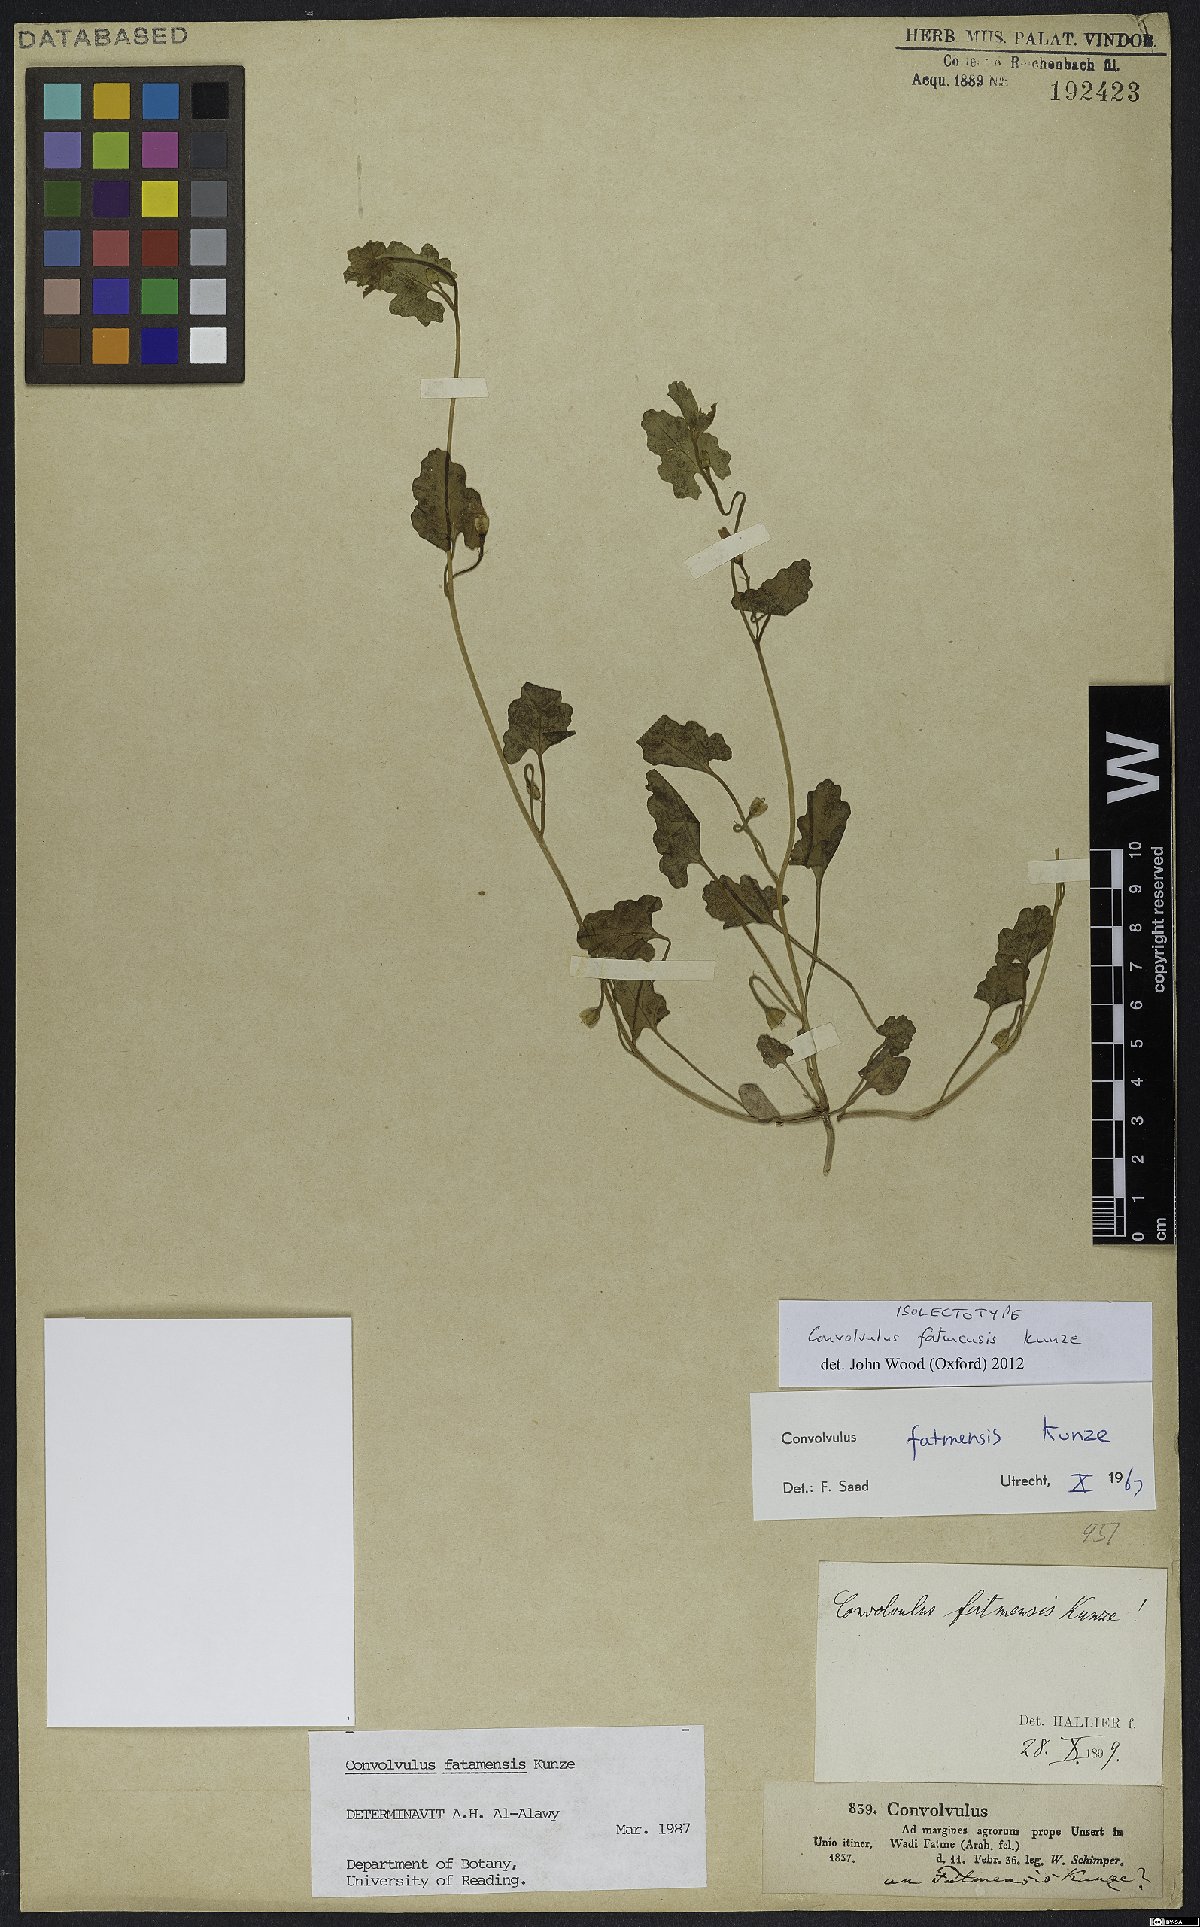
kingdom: Plantae
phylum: Tracheophyta
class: Magnoliopsida
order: Solanales
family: Convolvulaceae
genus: Convolvulus
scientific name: Convolvulus fatmensis
